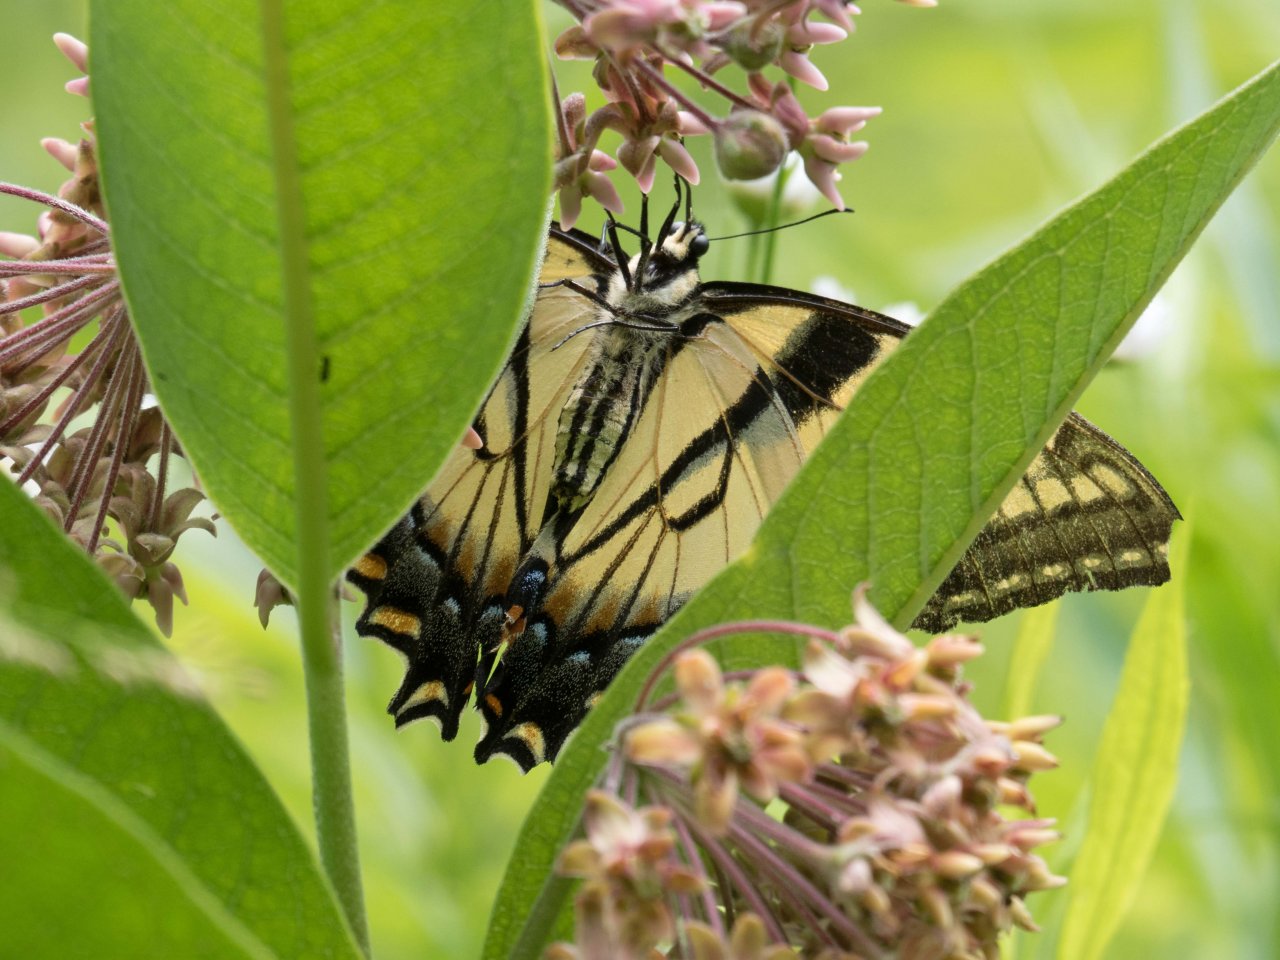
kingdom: Animalia
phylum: Arthropoda
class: Insecta
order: Lepidoptera
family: Papilionidae
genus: Pterourus
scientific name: Pterourus glaucus
